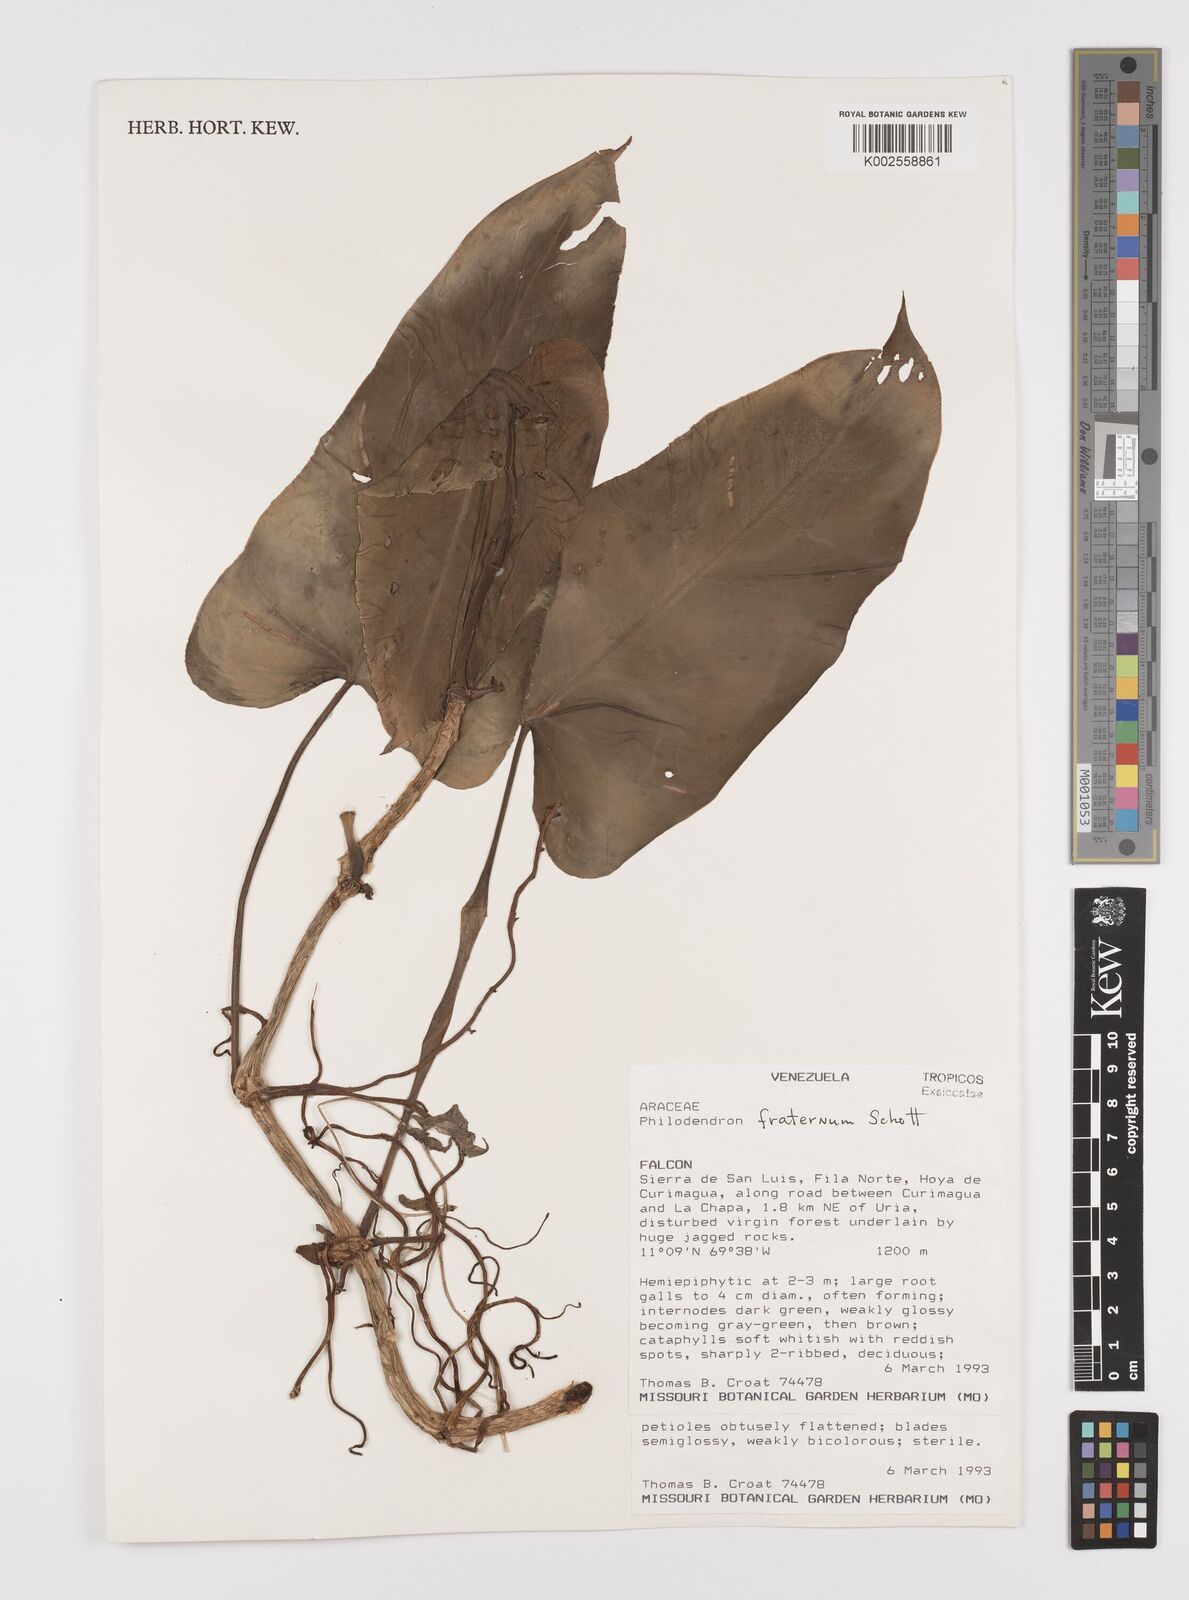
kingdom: Plantae
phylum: Tracheophyta
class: Liliopsida
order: Alismatales
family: Araceae
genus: Philodendron
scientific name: Philodendron fraternum
